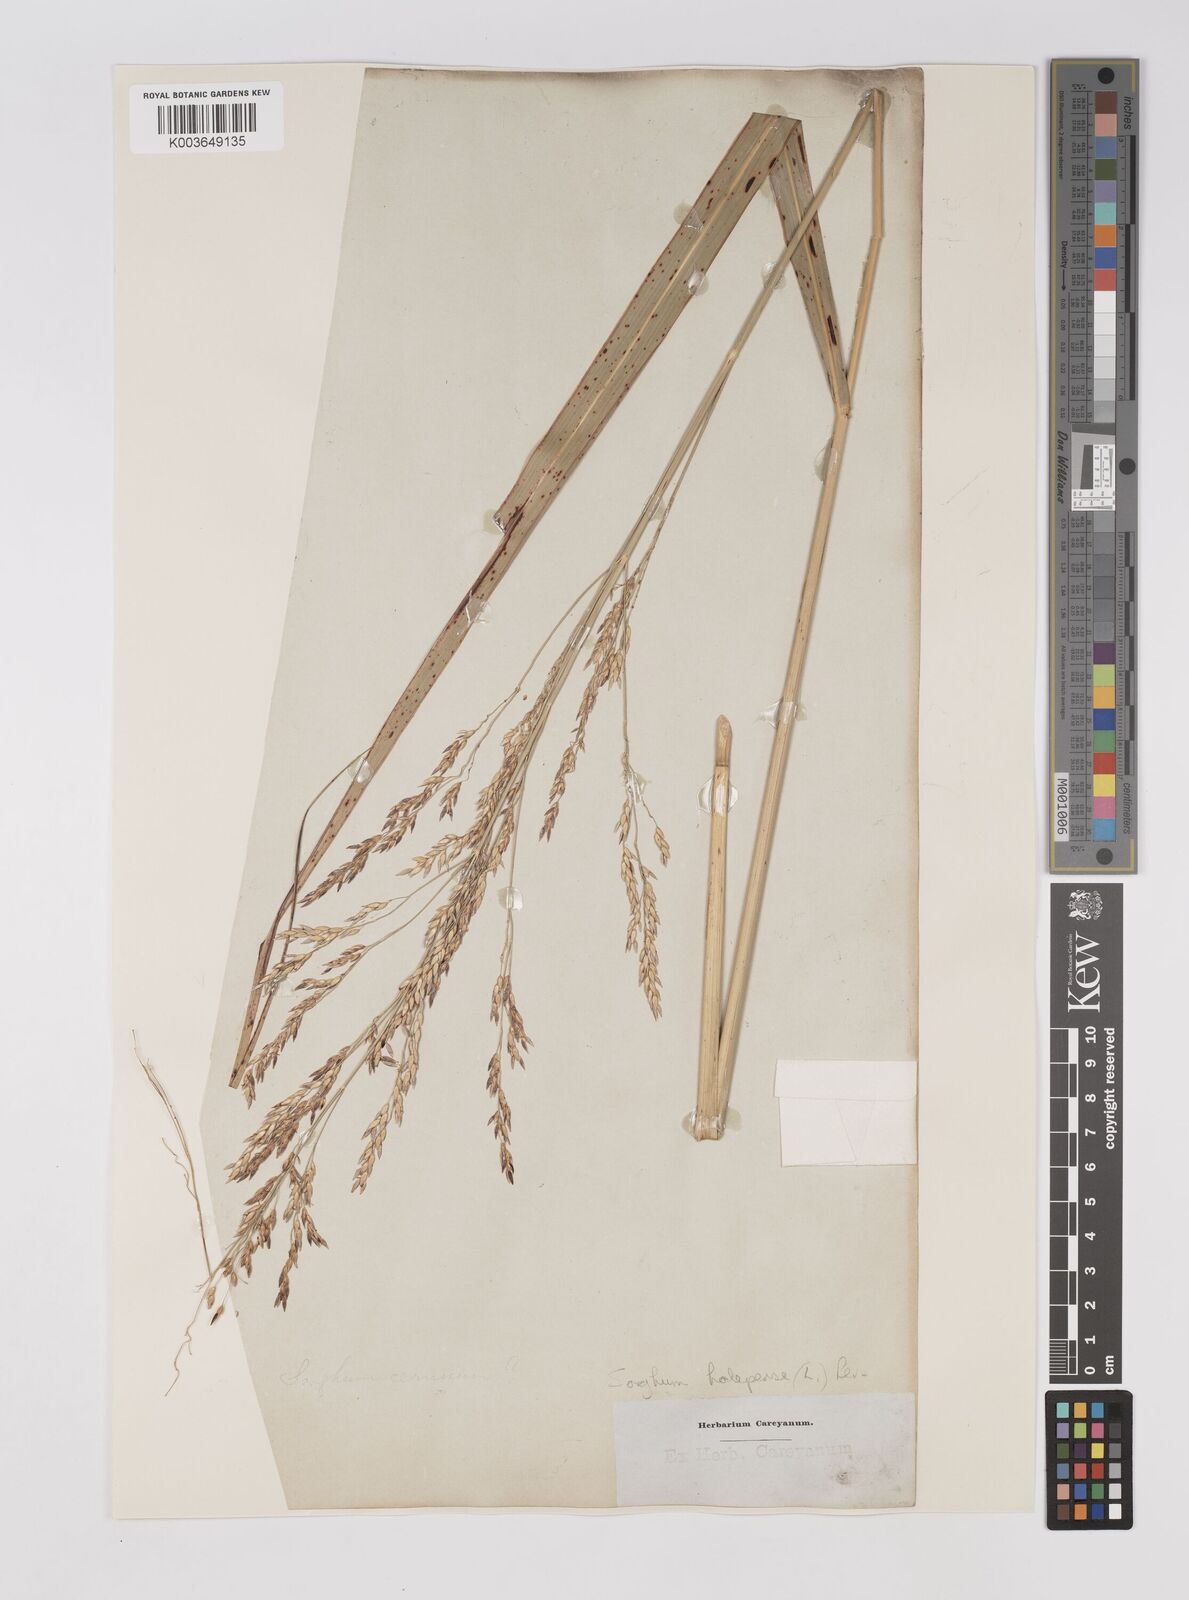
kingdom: Plantae
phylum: Tracheophyta
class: Liliopsida
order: Poales
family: Poaceae
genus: Sorghum
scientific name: Sorghum halepense
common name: Johnson-grass
